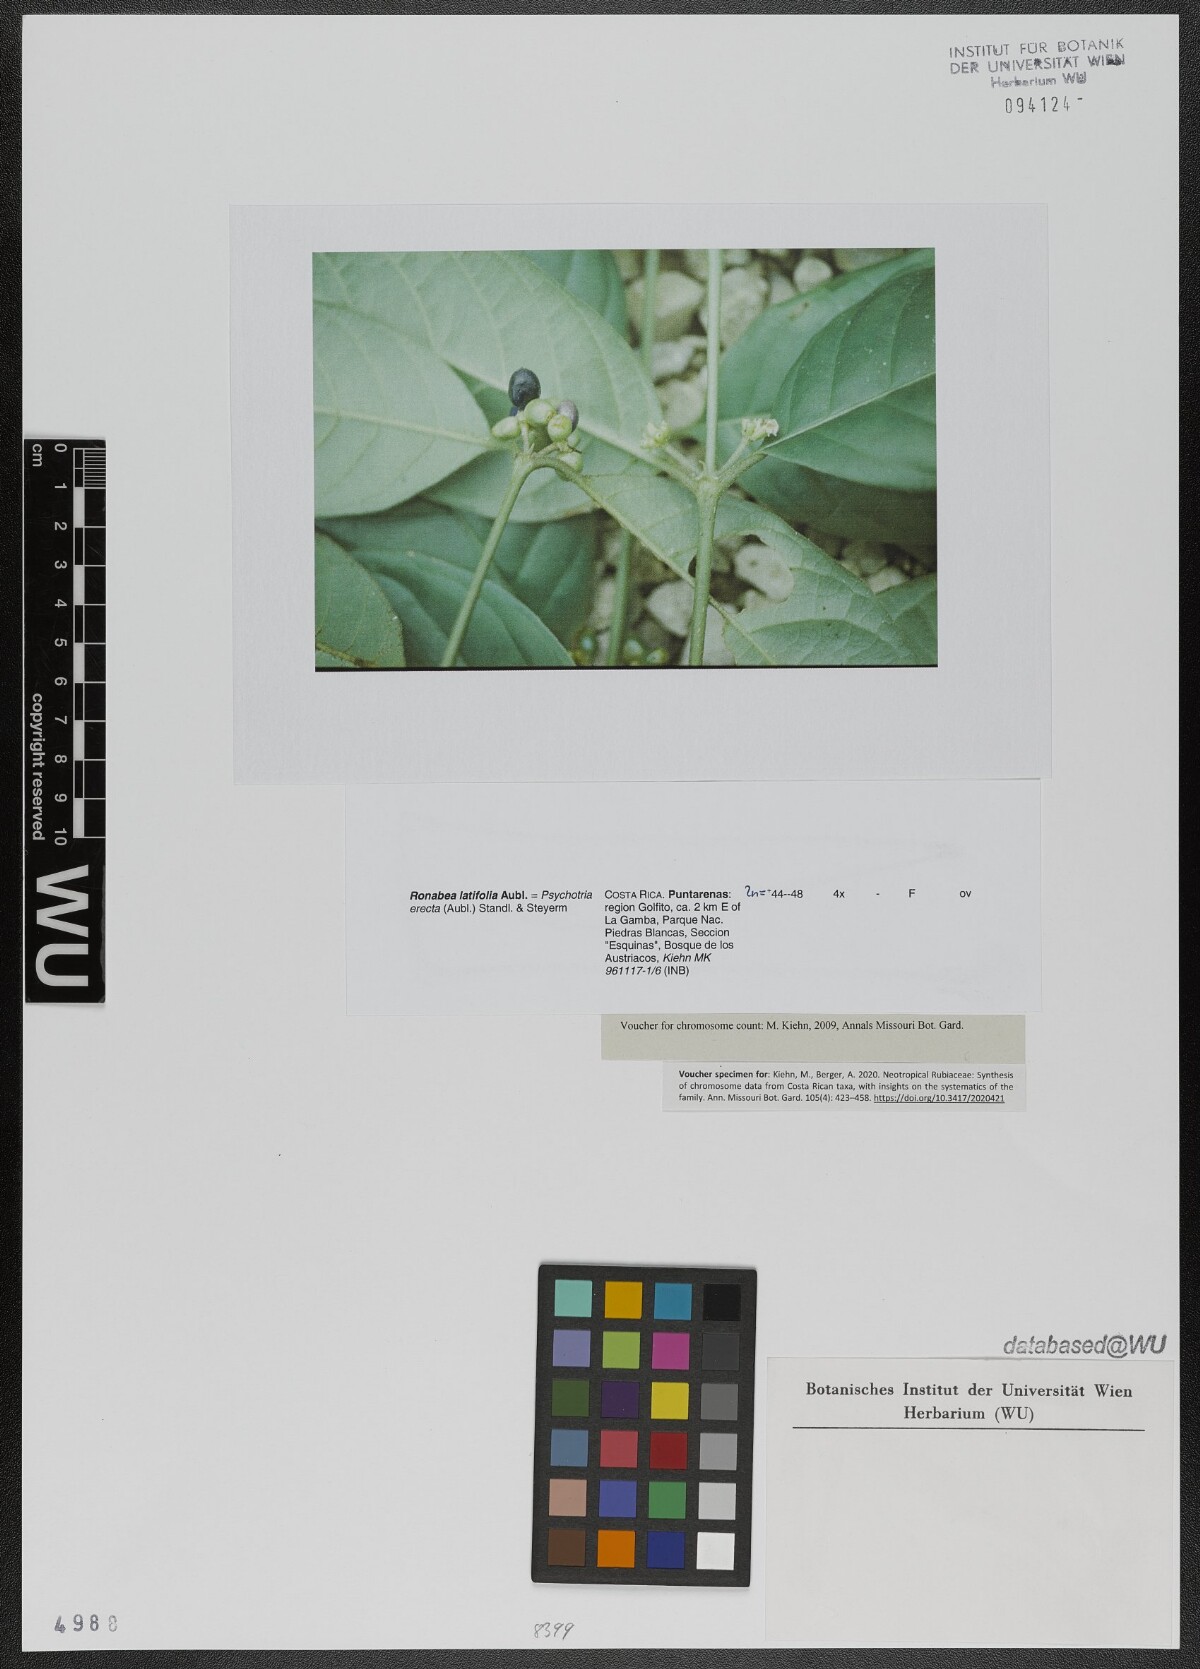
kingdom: Plantae
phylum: Tracheophyta
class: Magnoliopsida
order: Gentianales
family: Rubiaceae
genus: Ronabea
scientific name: Ronabea latifolia
